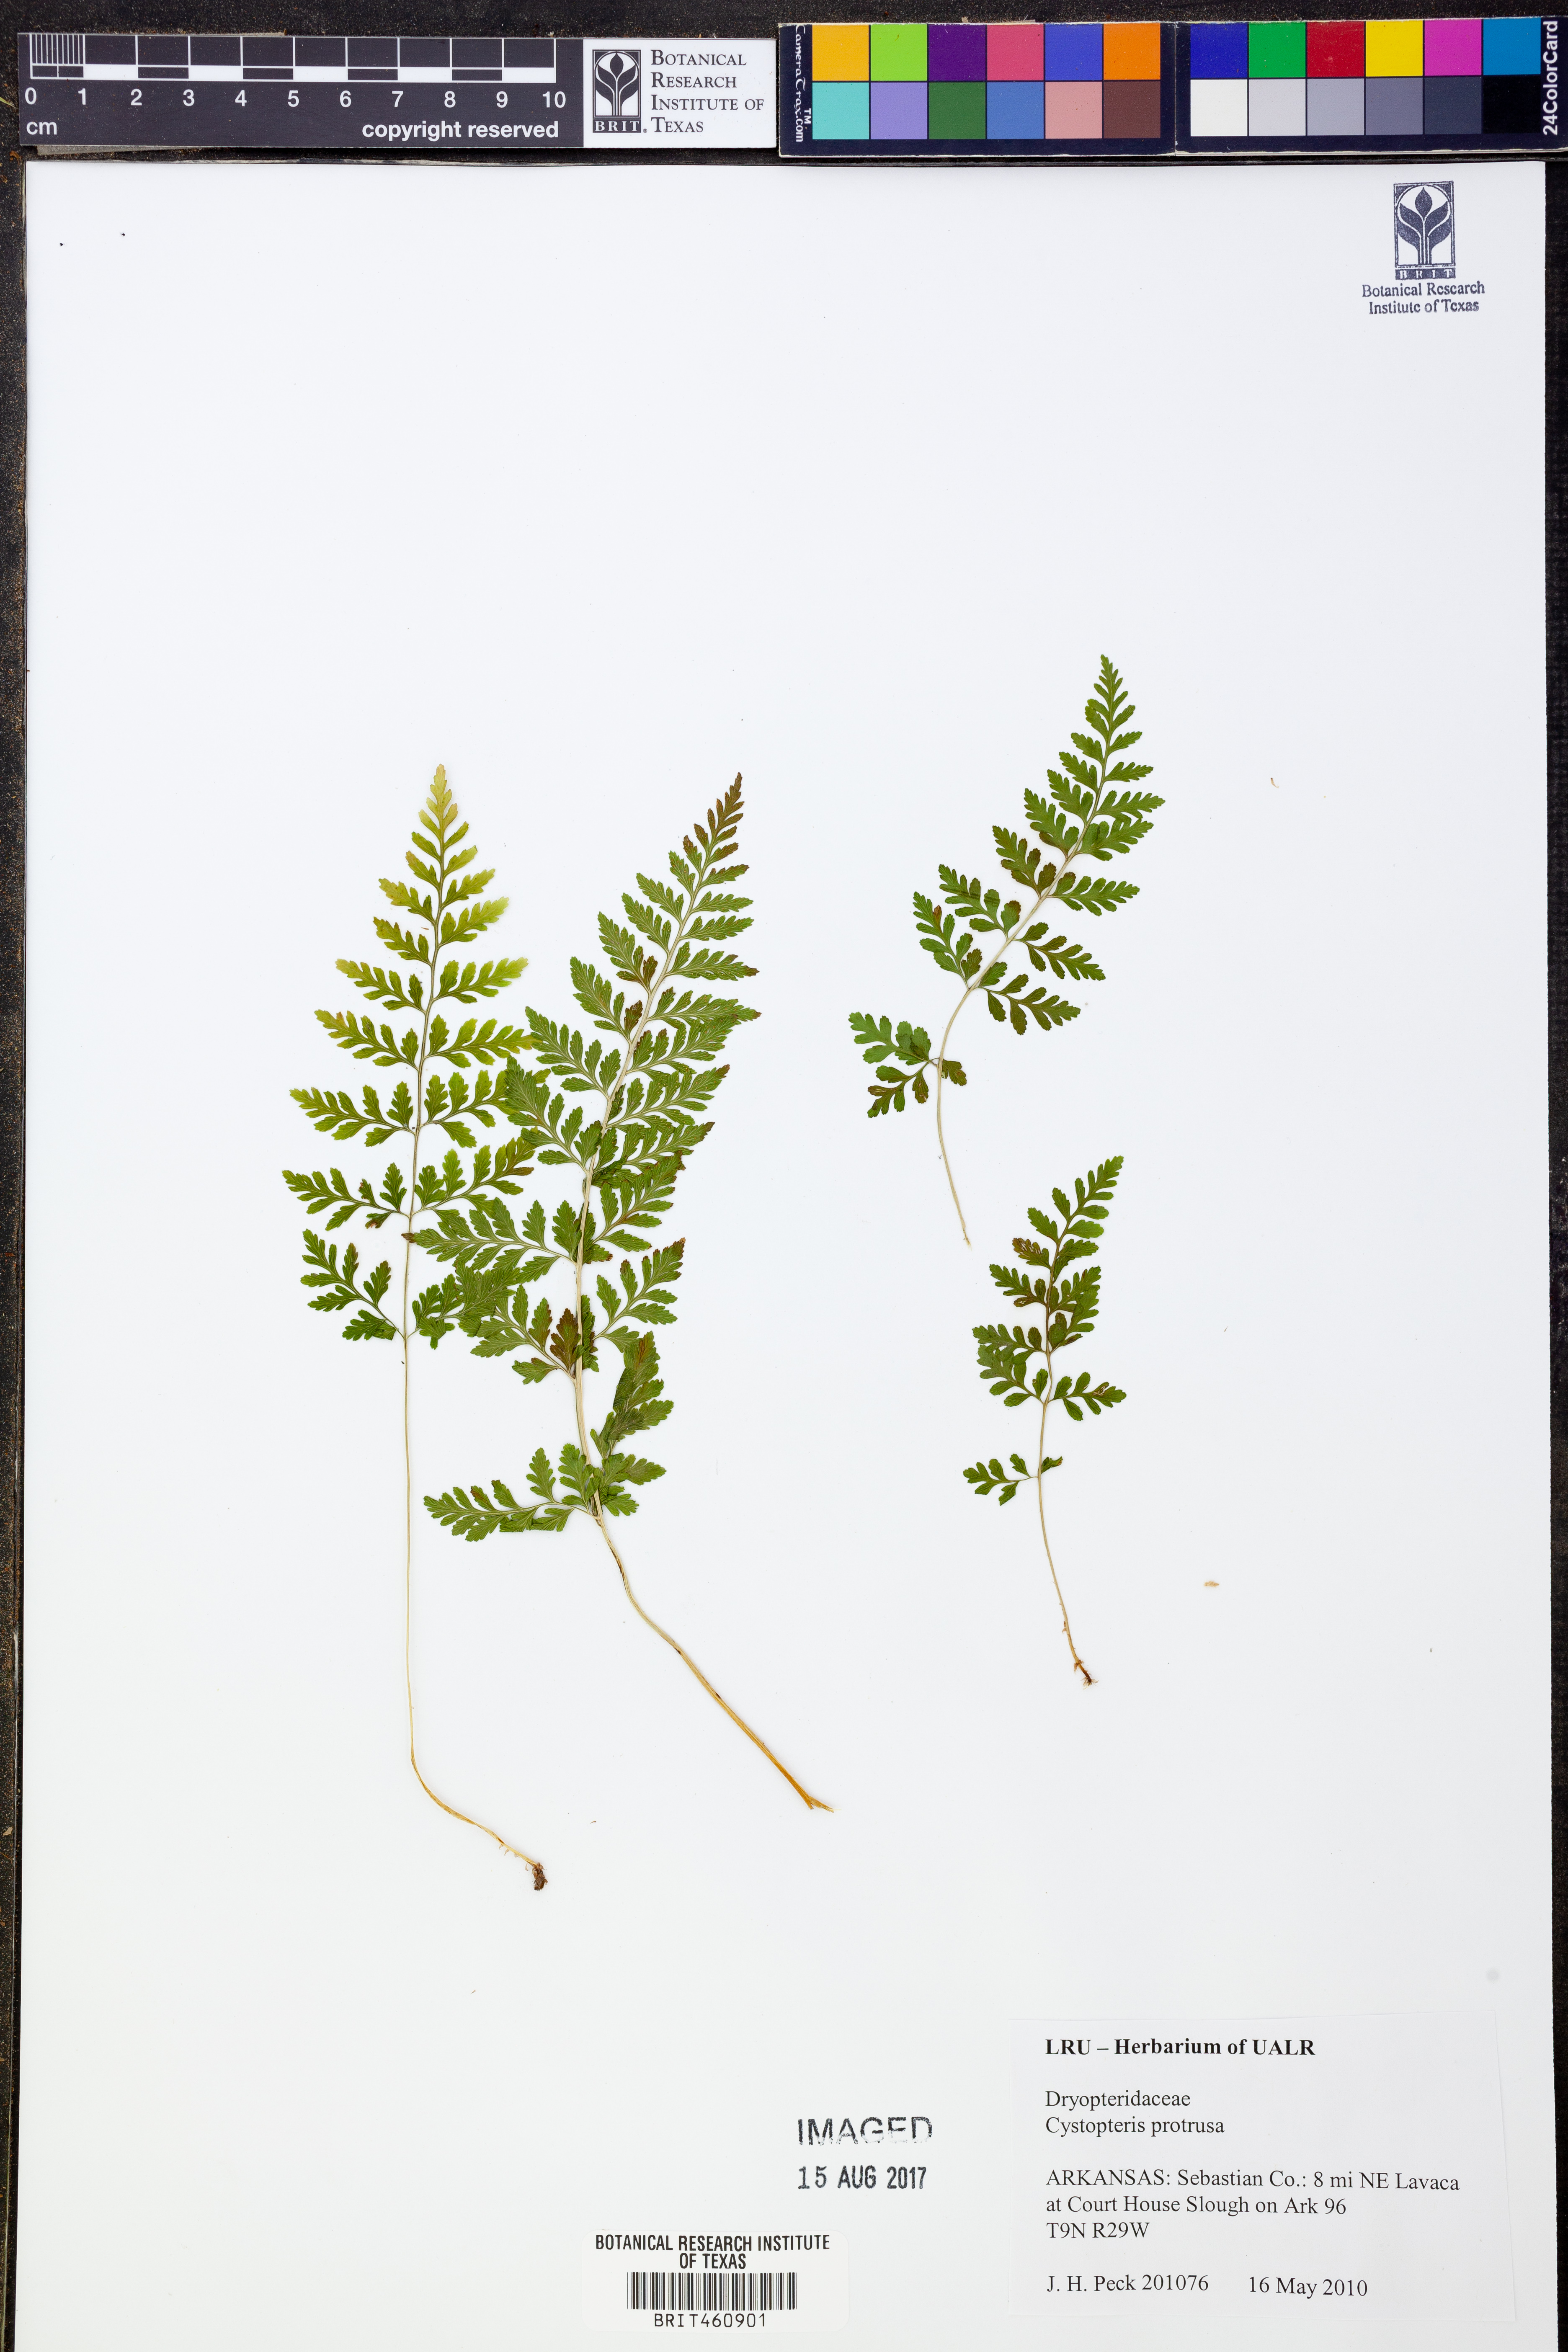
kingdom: Plantae
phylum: Tracheophyta
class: Polypodiopsida
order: Polypodiales
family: Cystopteridaceae
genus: Cystopteris
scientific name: Cystopteris protrusa
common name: Lowland brittle fern
